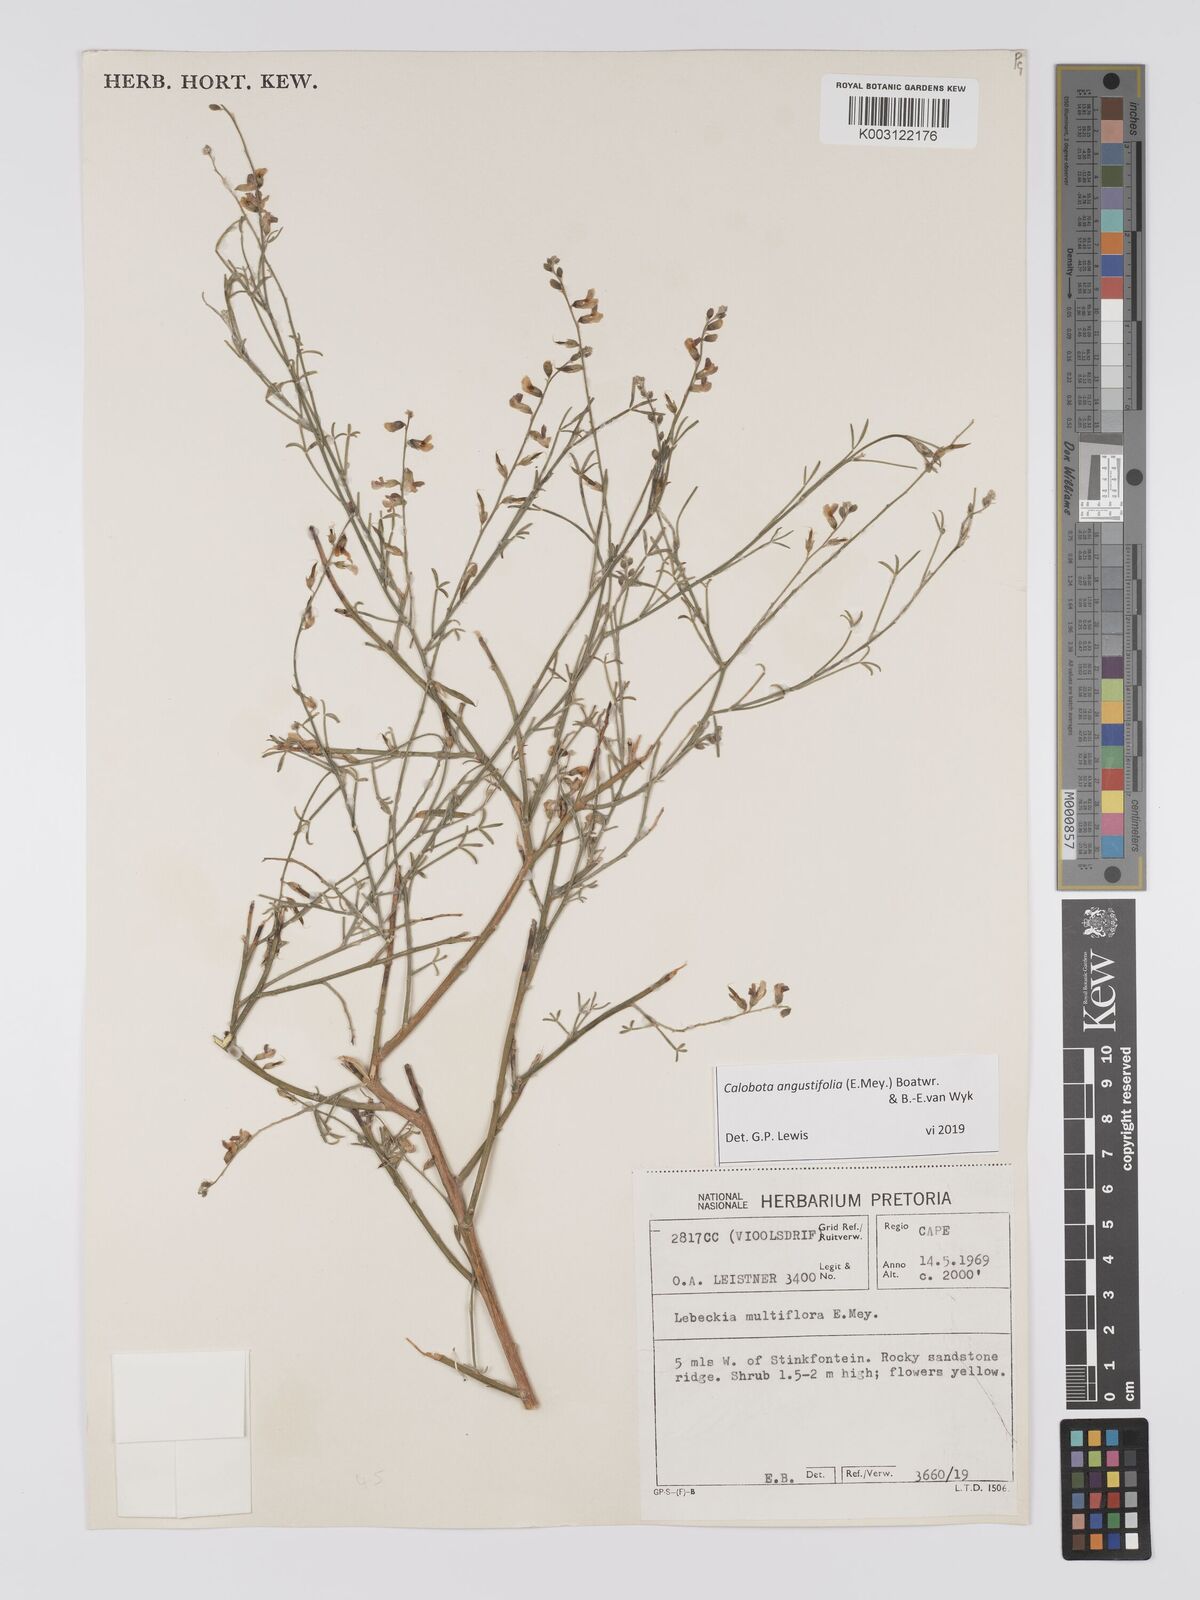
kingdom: Plantae
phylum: Tracheophyta
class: Magnoliopsida
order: Fabales
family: Fabaceae
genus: Calobota
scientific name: Calobota angustifolia
